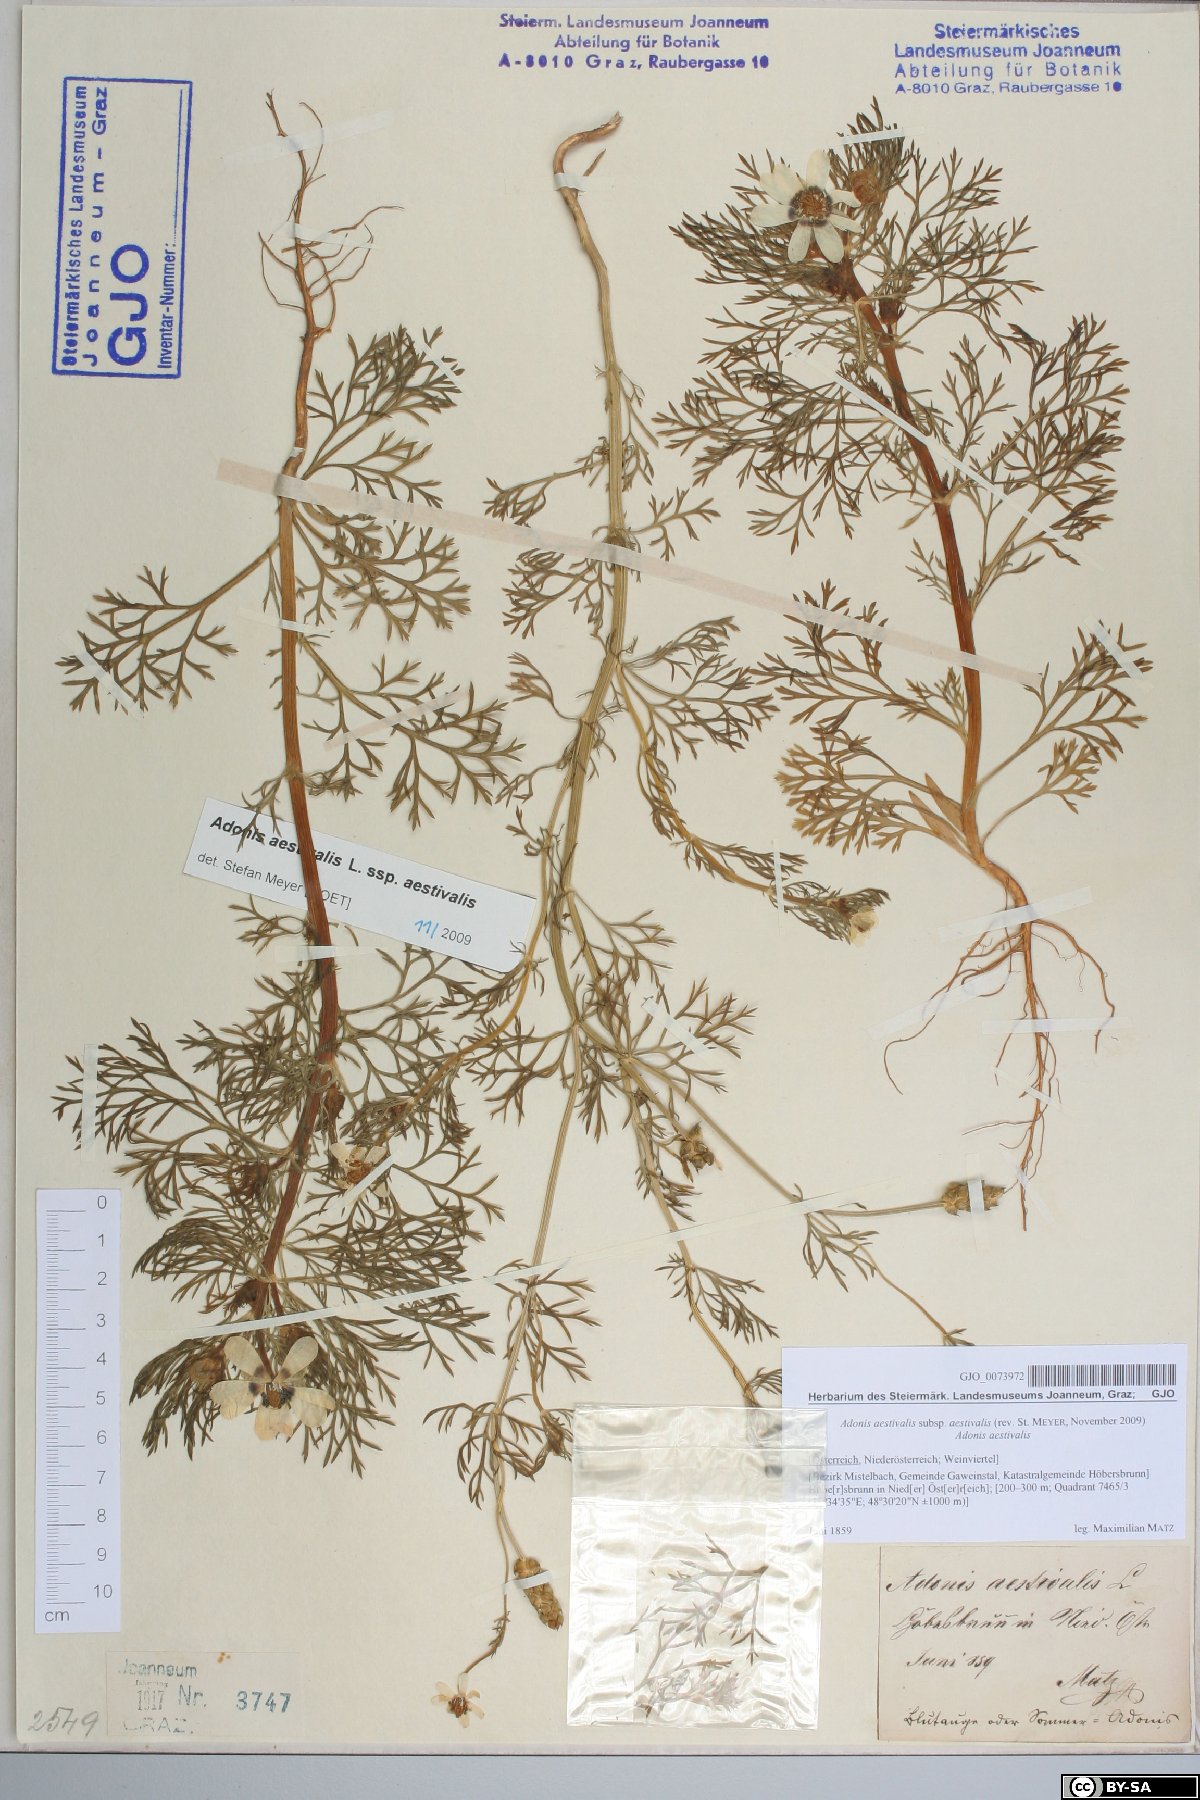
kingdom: Plantae
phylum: Tracheophyta
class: Magnoliopsida
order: Ranunculales
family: Ranunculaceae
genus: Adonis
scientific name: Adonis aestivalis
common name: Summer pheasant's-eye
